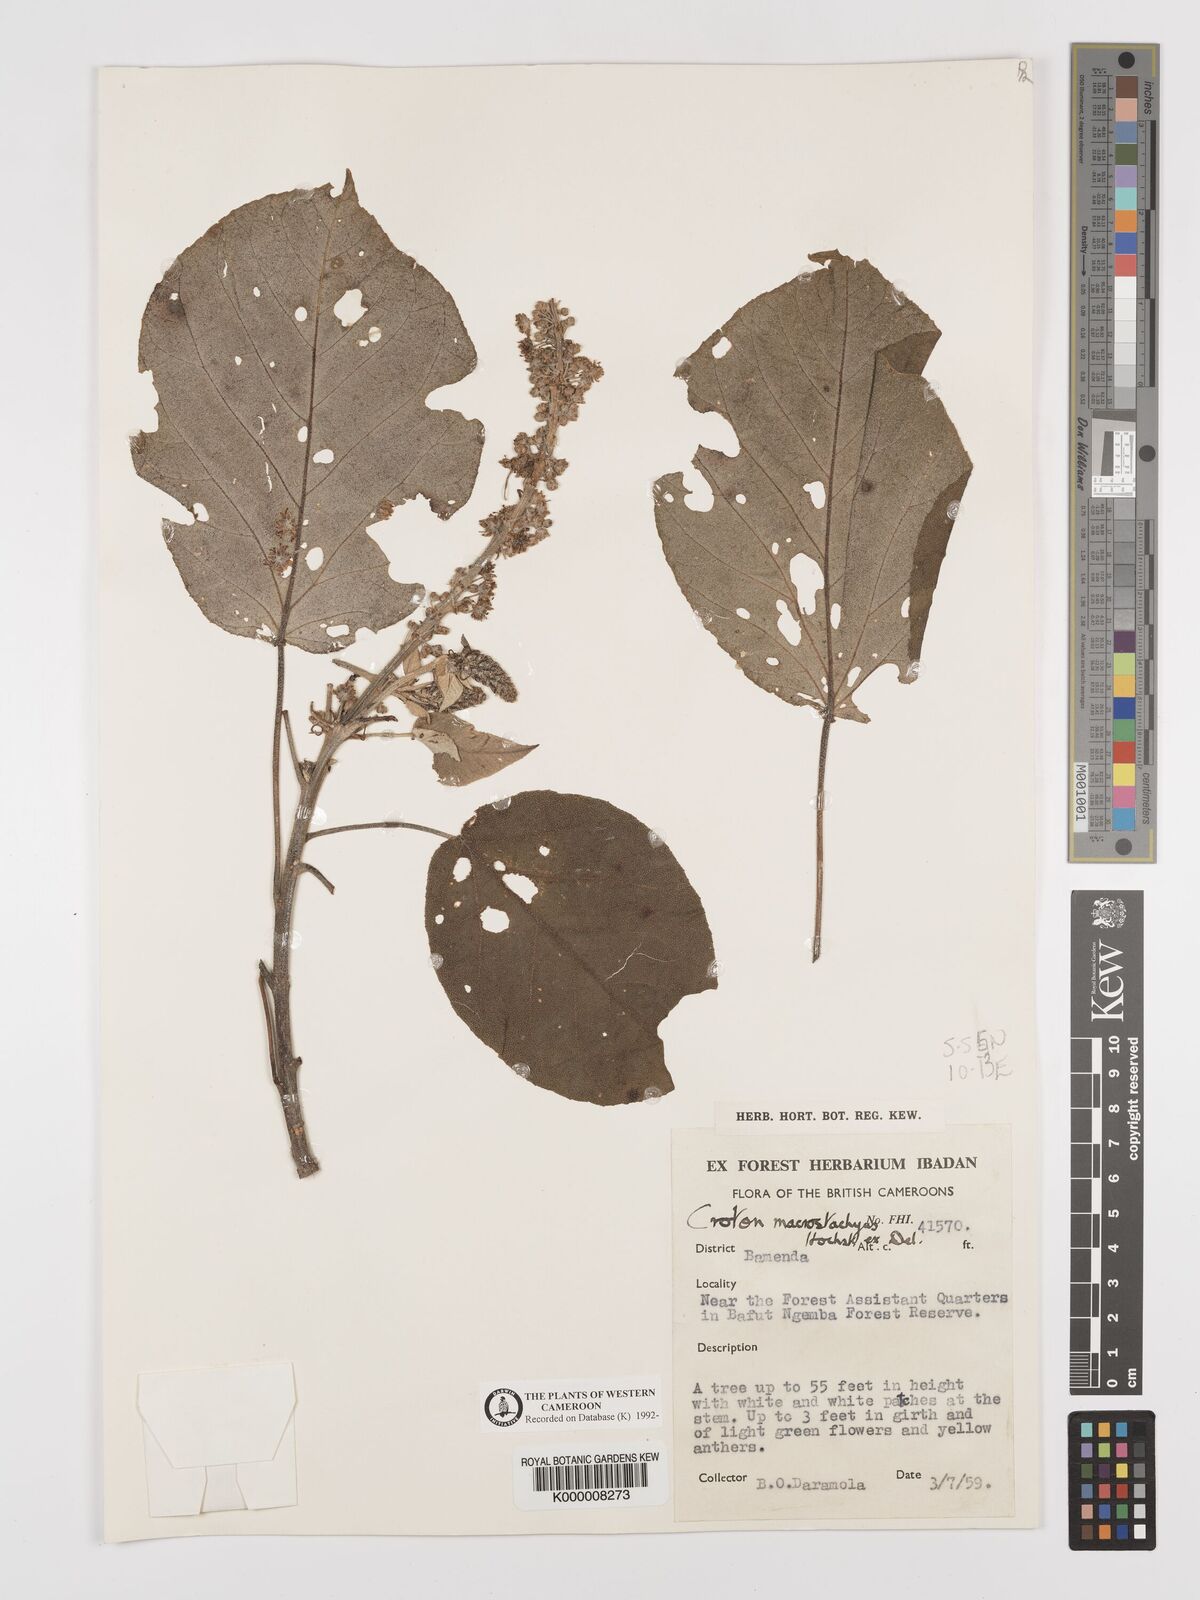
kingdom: Plantae
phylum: Tracheophyta
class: Magnoliopsida
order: Malpighiales
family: Euphorbiaceae
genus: Croton
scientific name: Croton macrostachyus
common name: Mutundu
